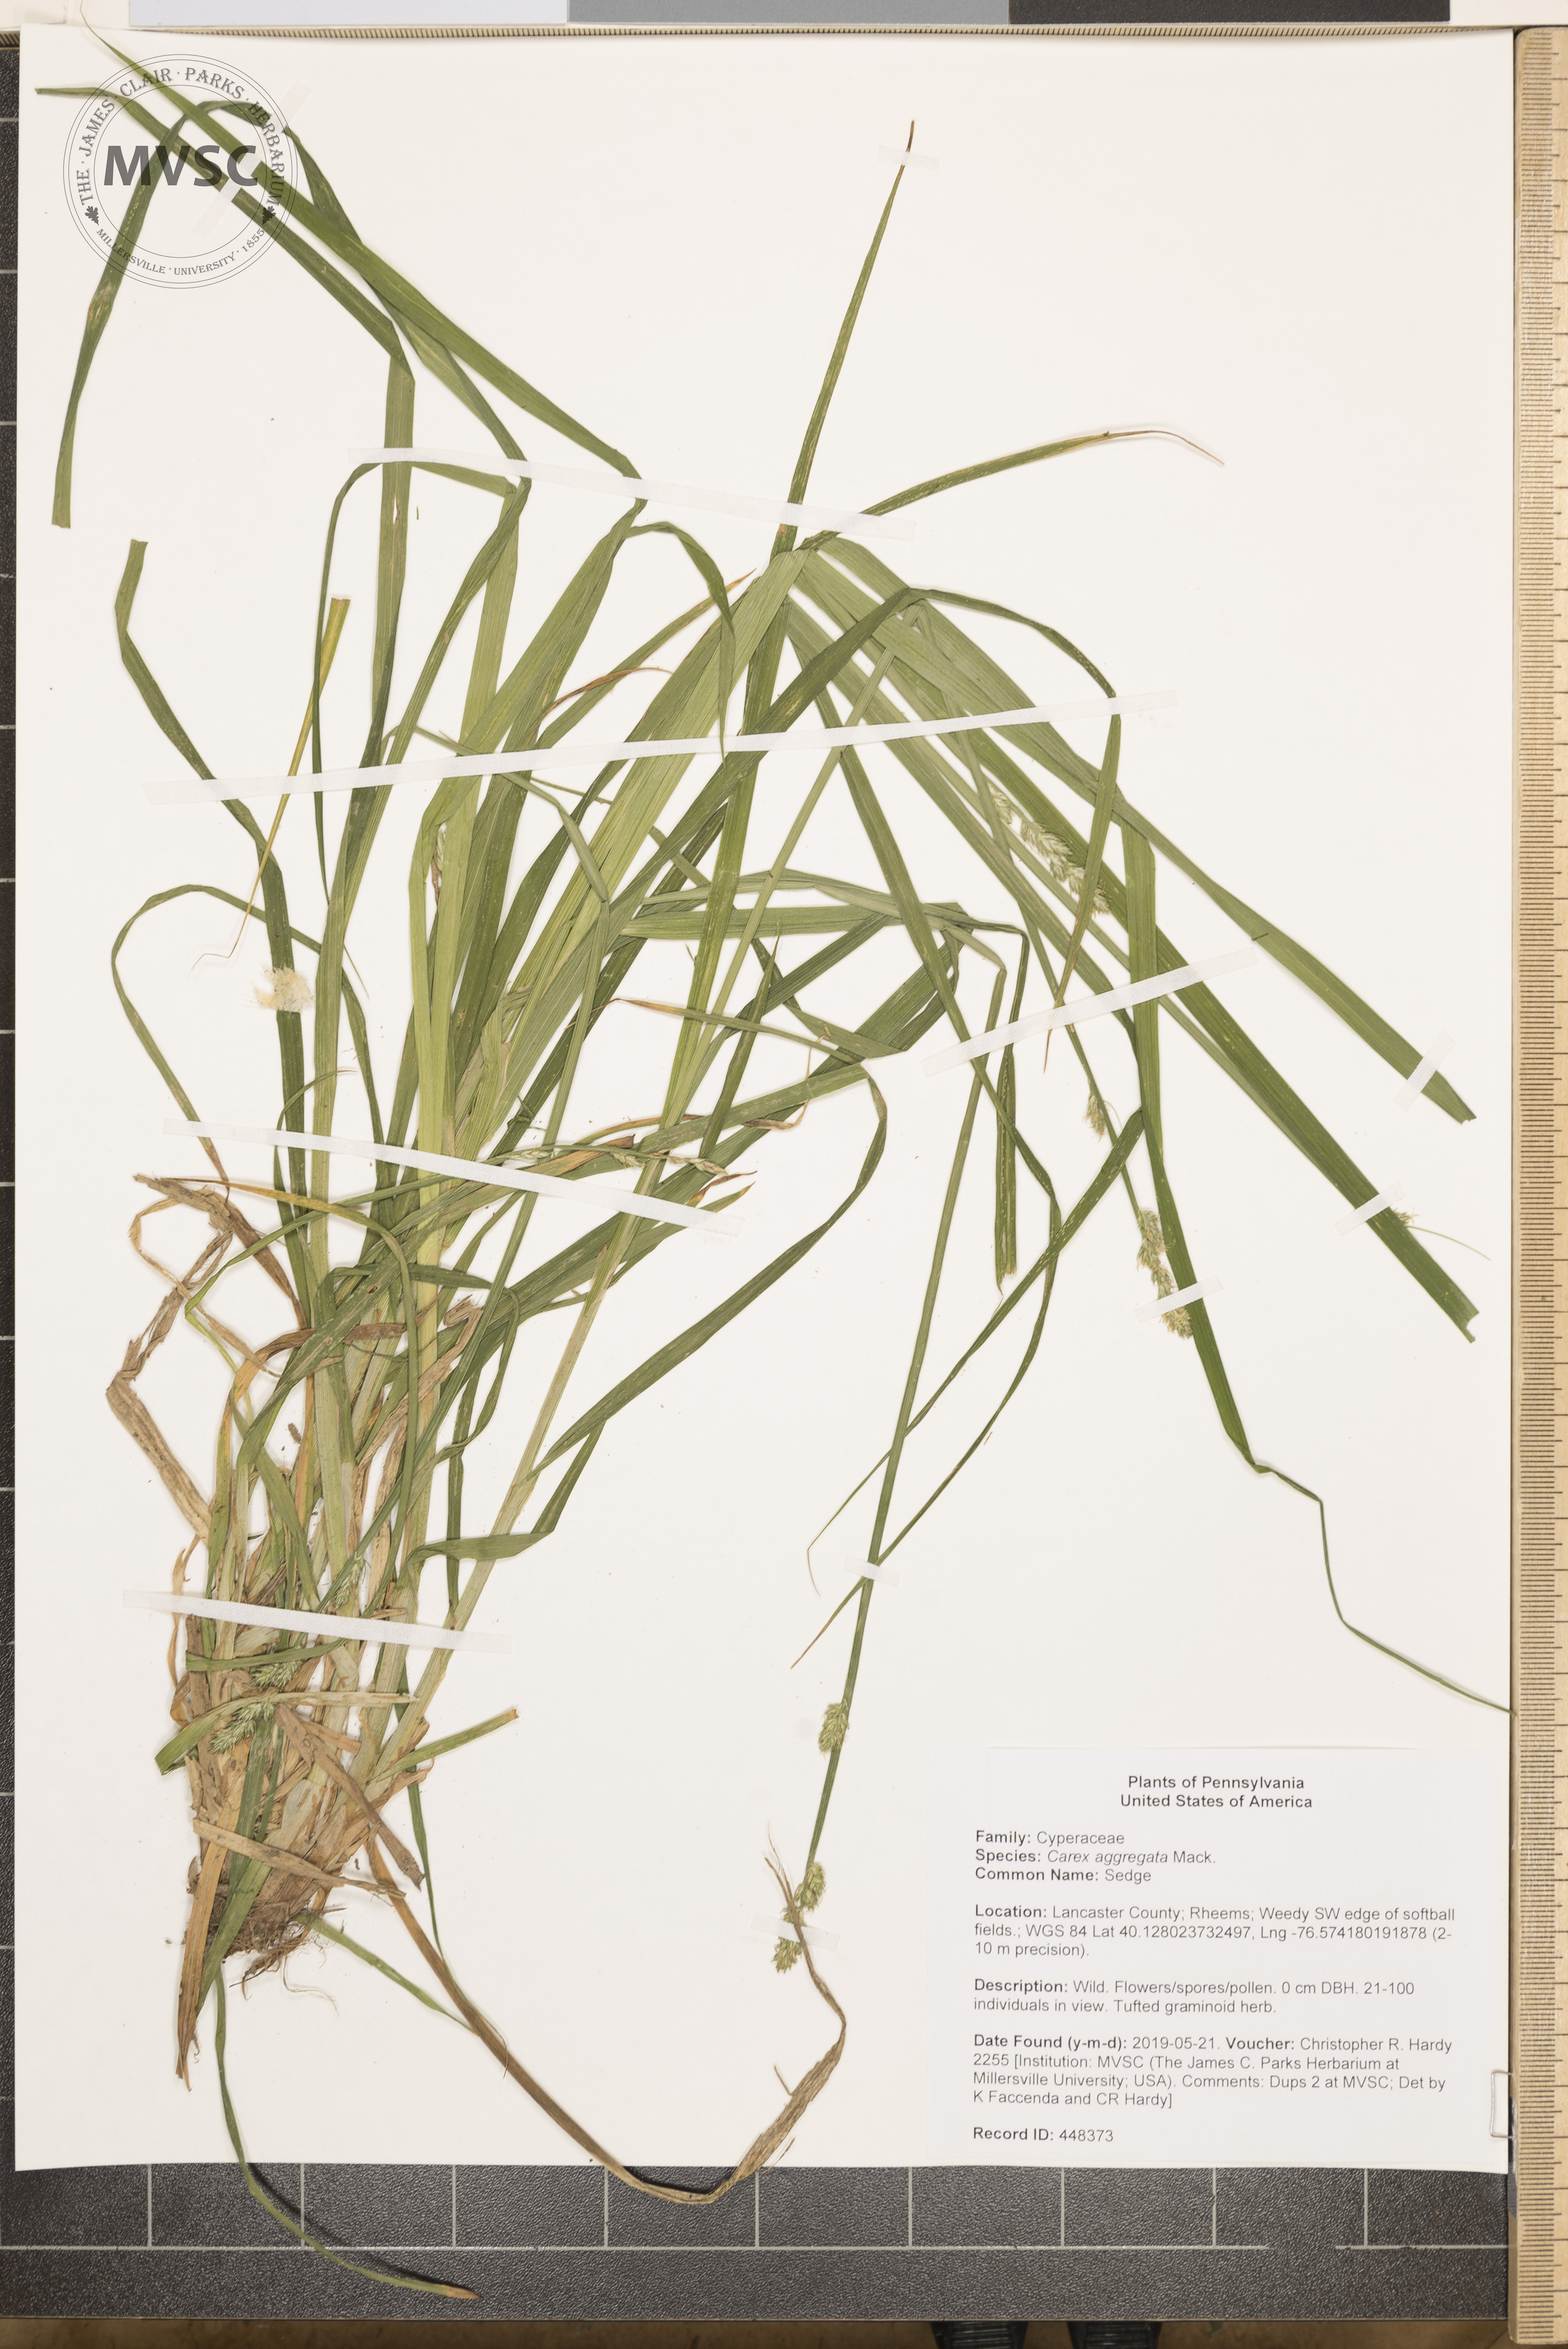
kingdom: Plantae
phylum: Tracheophyta
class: Liliopsida
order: Poales
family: Cyperaceae
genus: Carex
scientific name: Carex aggregata
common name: Sedge
